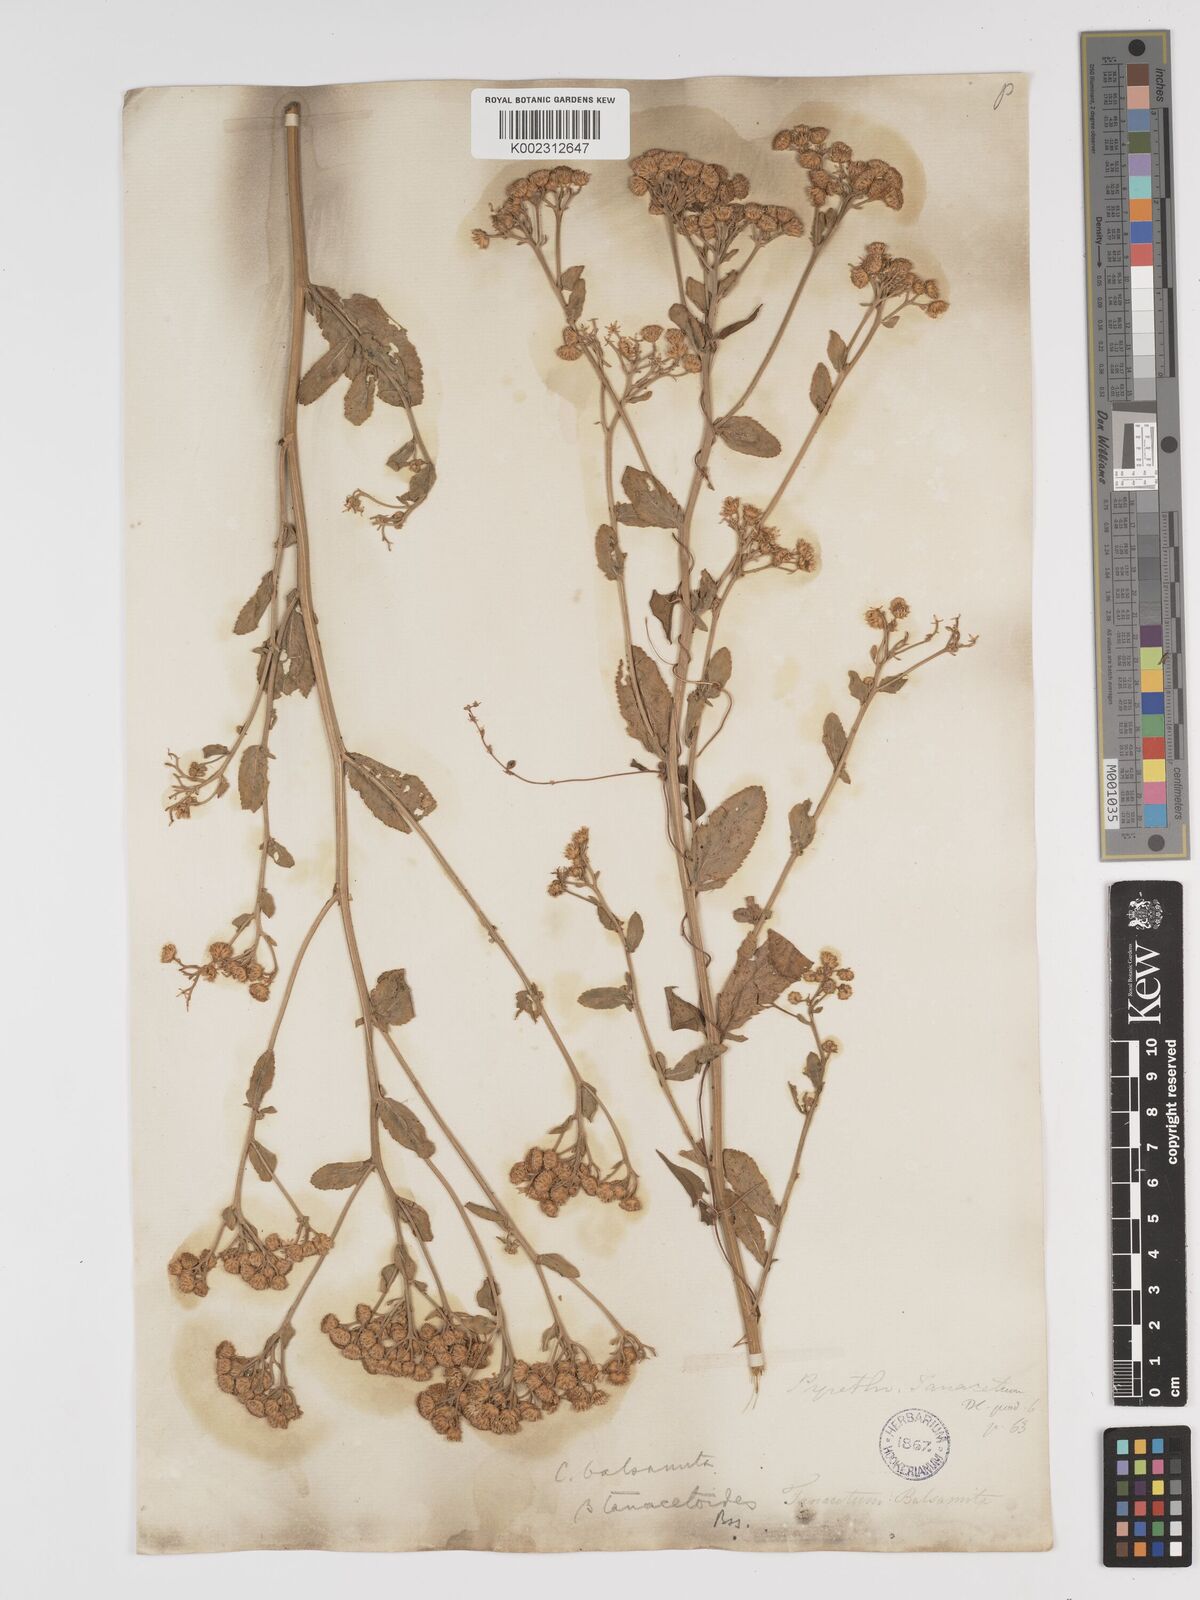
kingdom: Plantae
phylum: Tracheophyta
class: Magnoliopsida
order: Asterales
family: Asteraceae
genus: Tanacetum
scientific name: Tanacetum balsamita
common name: Costmary
